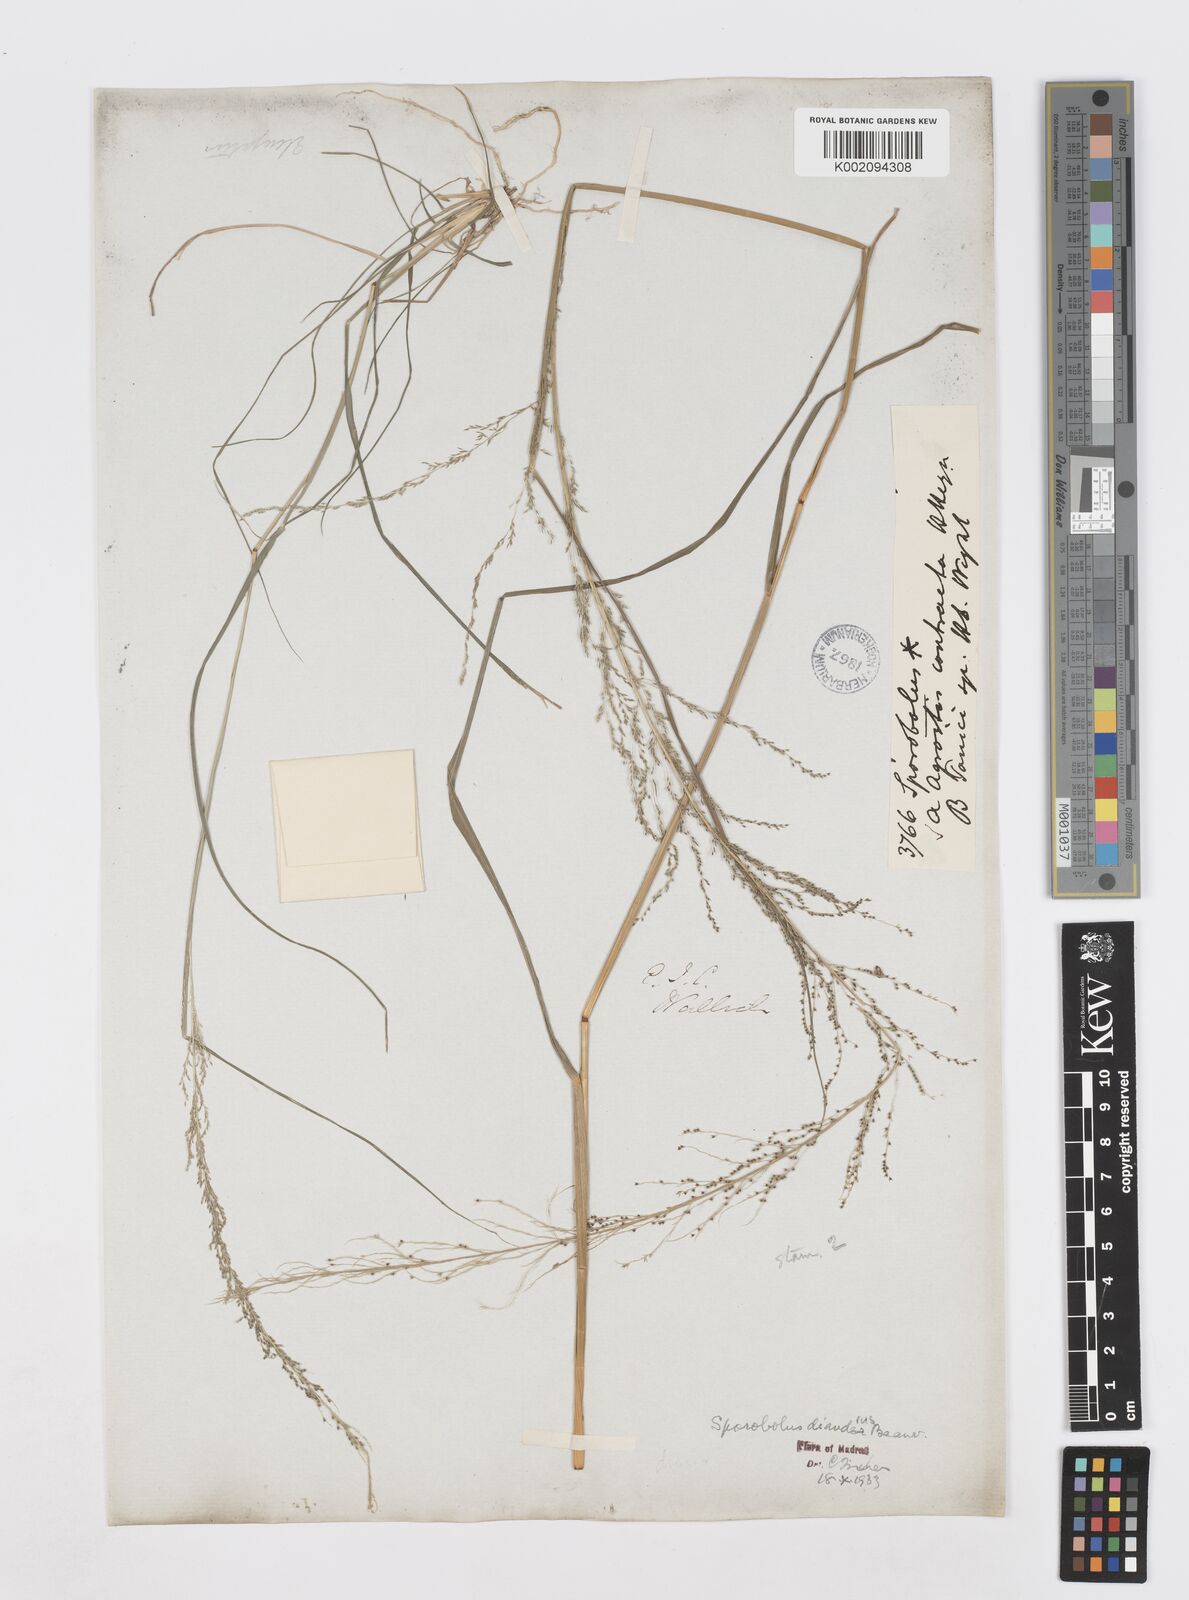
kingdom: Plantae
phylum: Tracheophyta
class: Liliopsida
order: Poales
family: Poaceae
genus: Sporobolus
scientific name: Sporobolus diandrus
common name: Tussock dropseed
